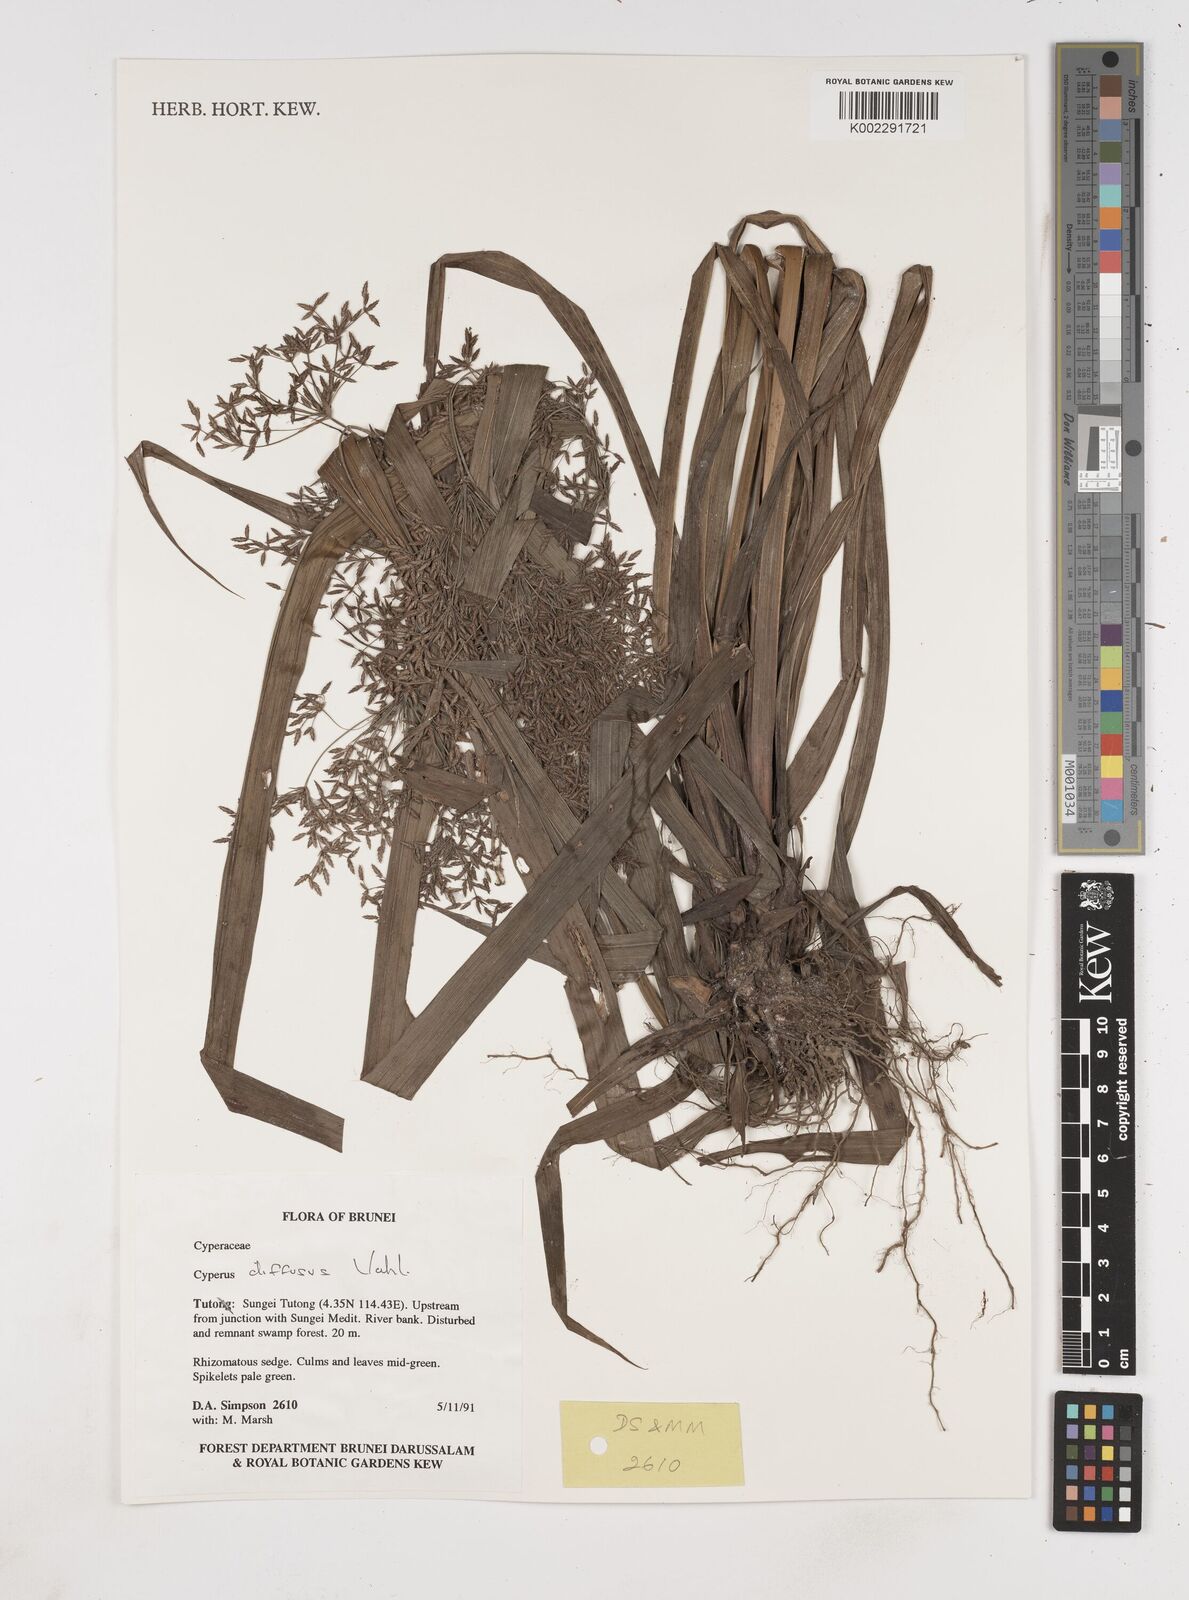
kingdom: Plantae
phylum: Tracheophyta
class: Liliopsida
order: Poales
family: Cyperaceae
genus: Cyperus
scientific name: Cyperus diffusus
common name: Dwarf umbrella grass
